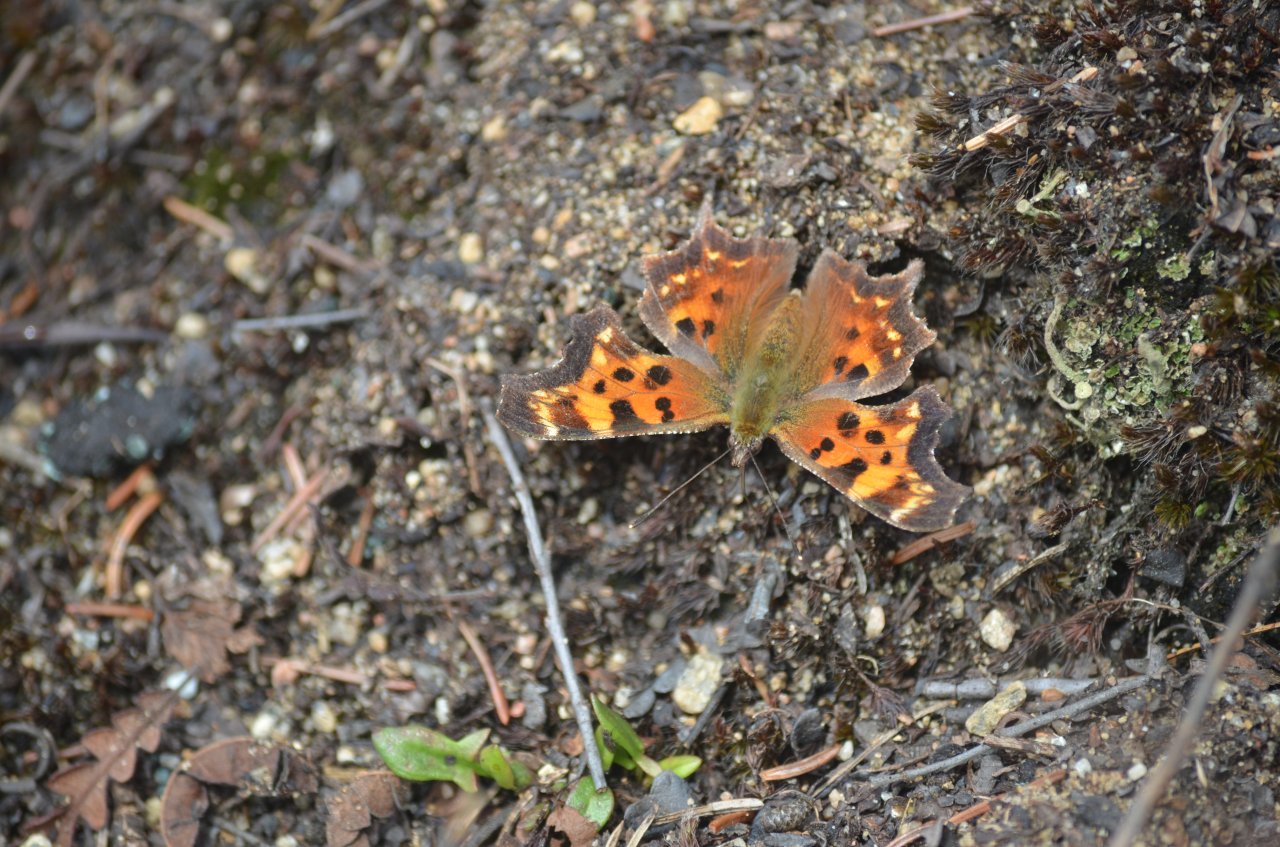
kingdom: Animalia
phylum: Arthropoda
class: Insecta
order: Lepidoptera
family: Nymphalidae
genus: Polygonia
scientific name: Polygonia faunus
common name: Green Comma
